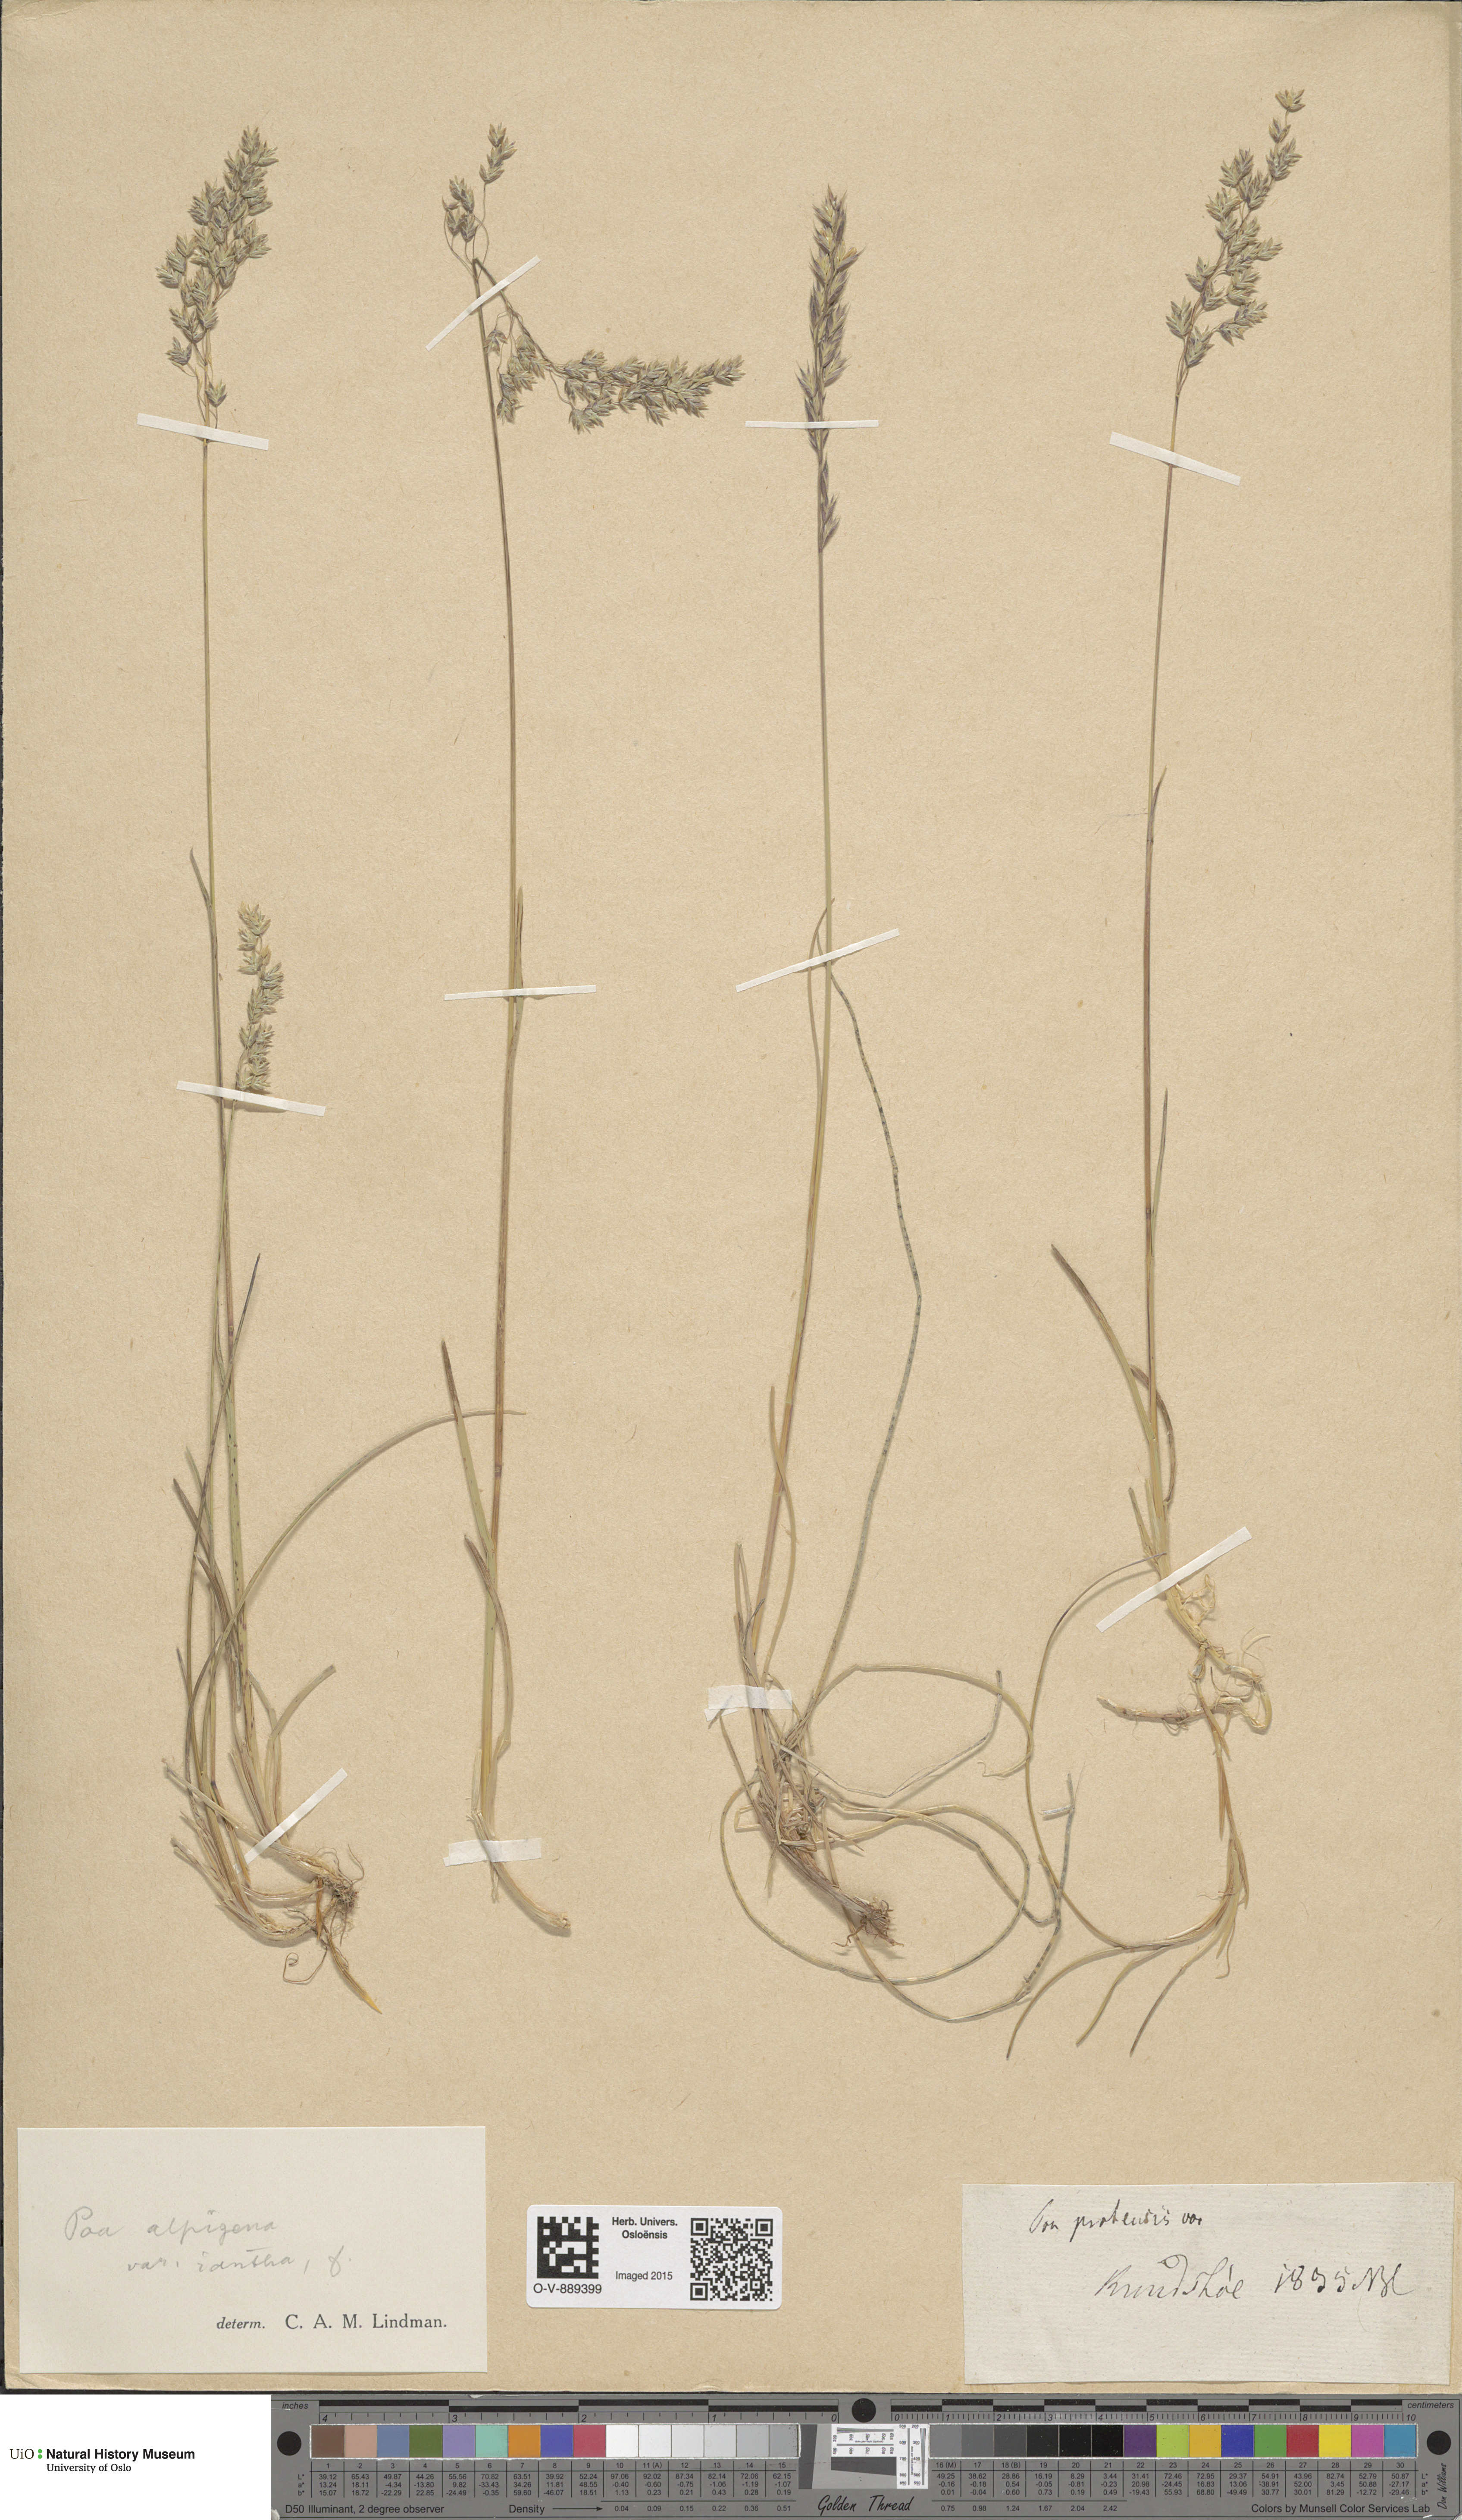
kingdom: Plantae
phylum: Tracheophyta
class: Liliopsida
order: Poales
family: Poaceae
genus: Poa
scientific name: Poa alpigena
